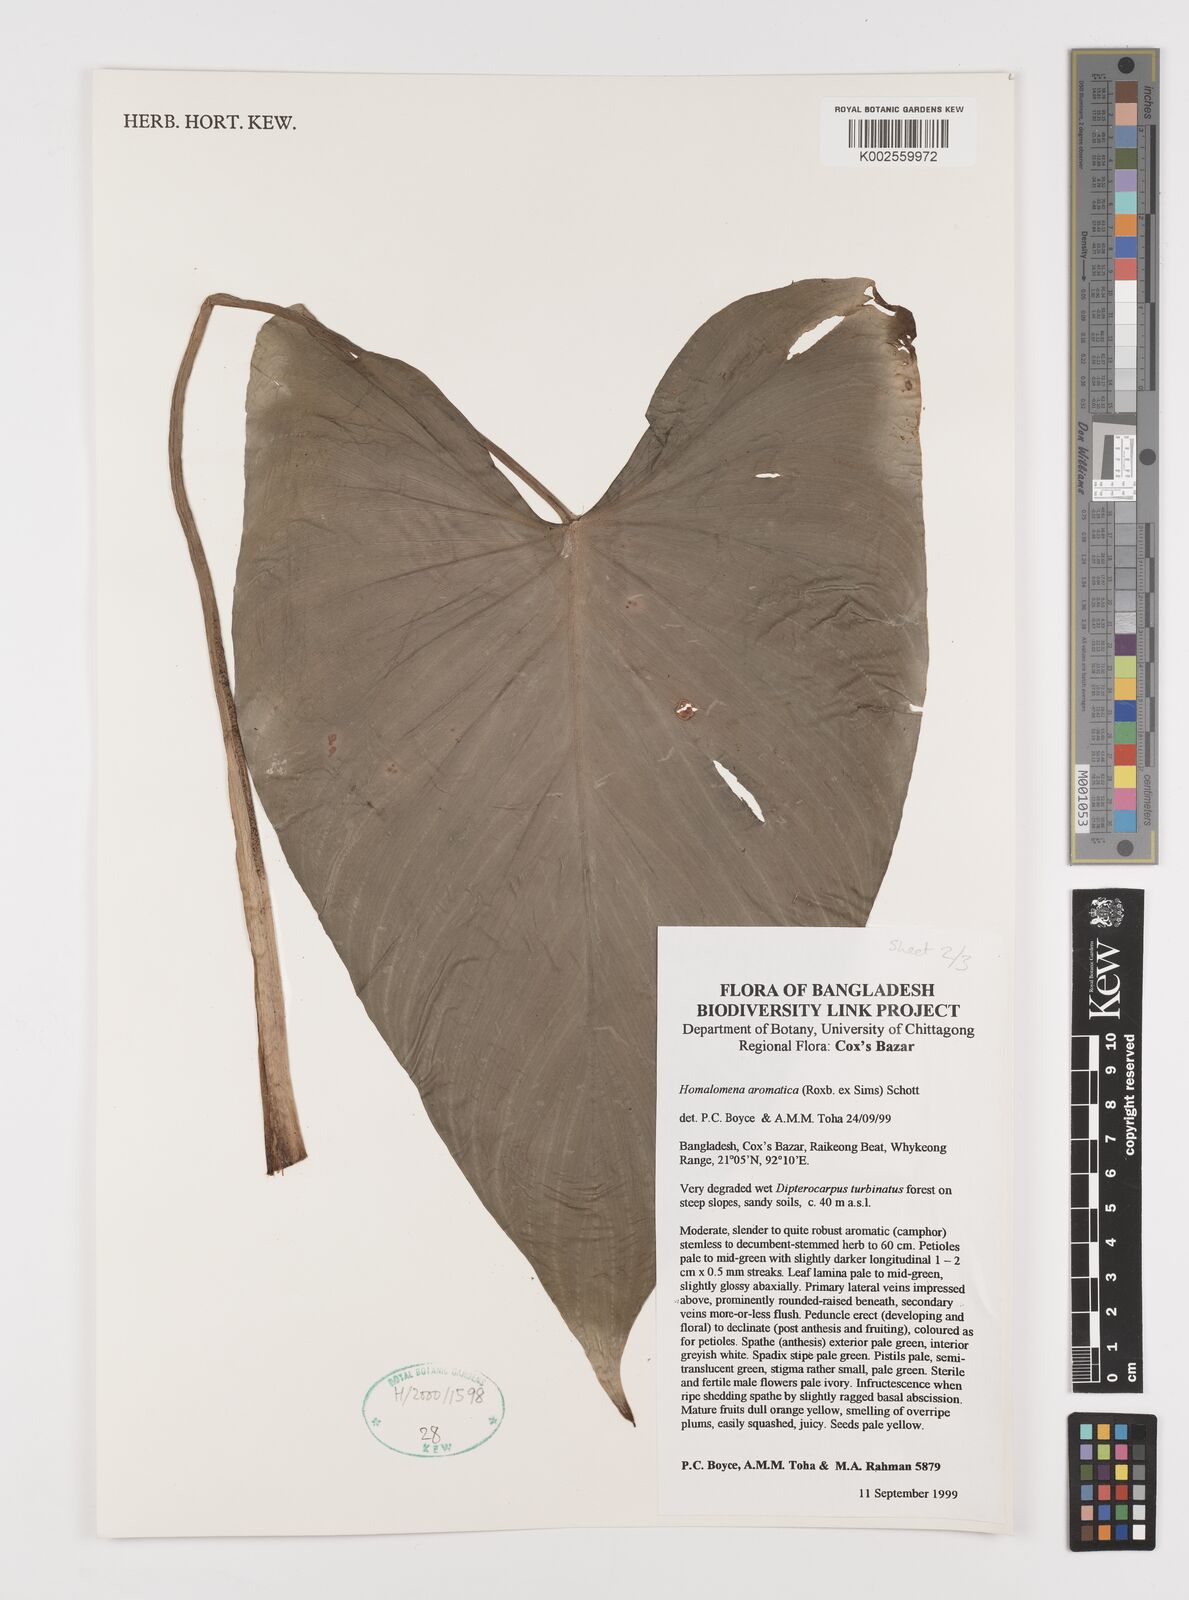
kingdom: Plantae
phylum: Tracheophyta
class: Liliopsida
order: Alismatales
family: Araceae
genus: Homalomena
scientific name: Homalomena aromatica
